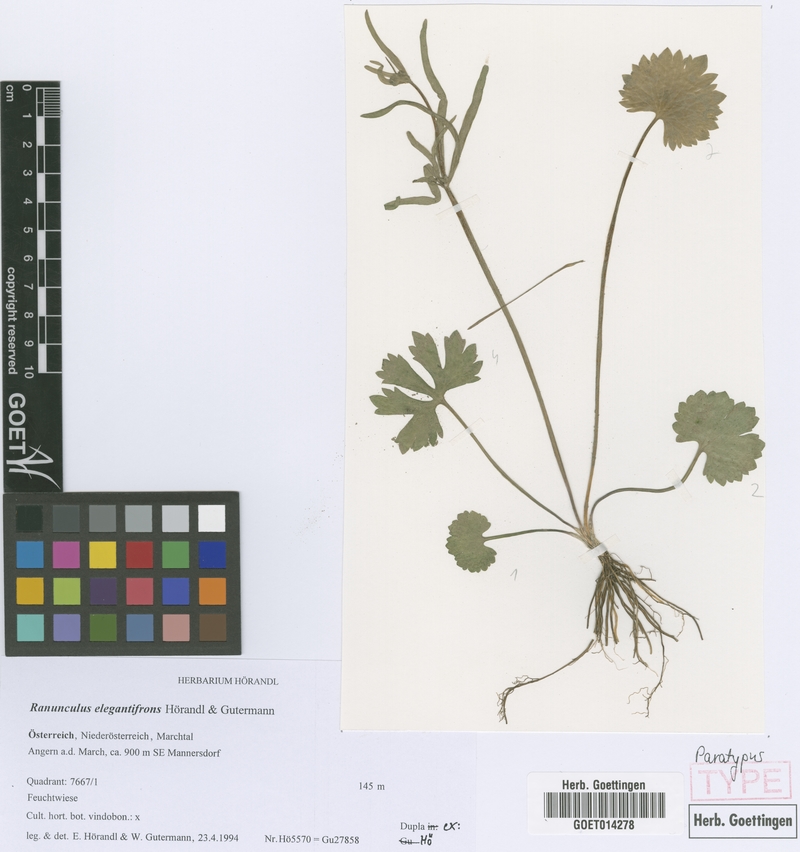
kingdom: Plantae
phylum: Tracheophyta
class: Magnoliopsida
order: Ranunculales
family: Ranunculaceae
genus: Ranunculus
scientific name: Ranunculus elegantifrons
